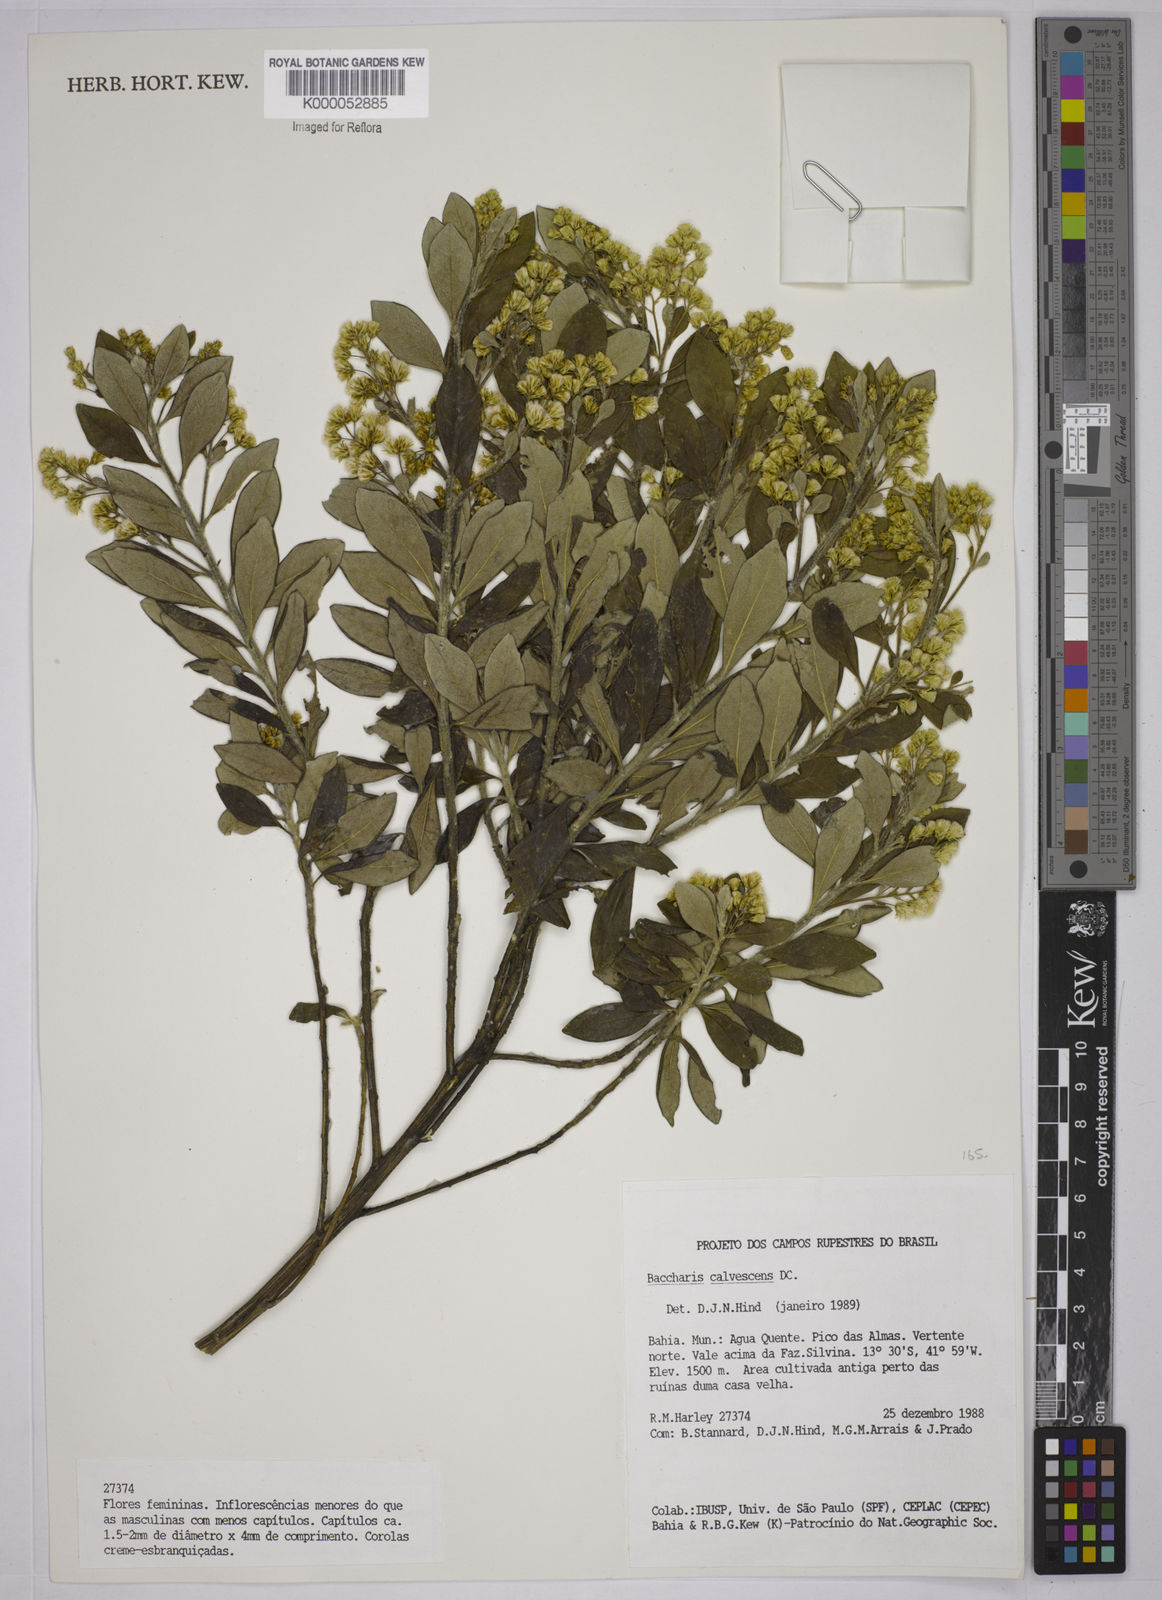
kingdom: Plantae
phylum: Tracheophyta
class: Magnoliopsida
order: Asterales
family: Asteraceae
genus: Baccharis
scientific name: Baccharis calvescens
